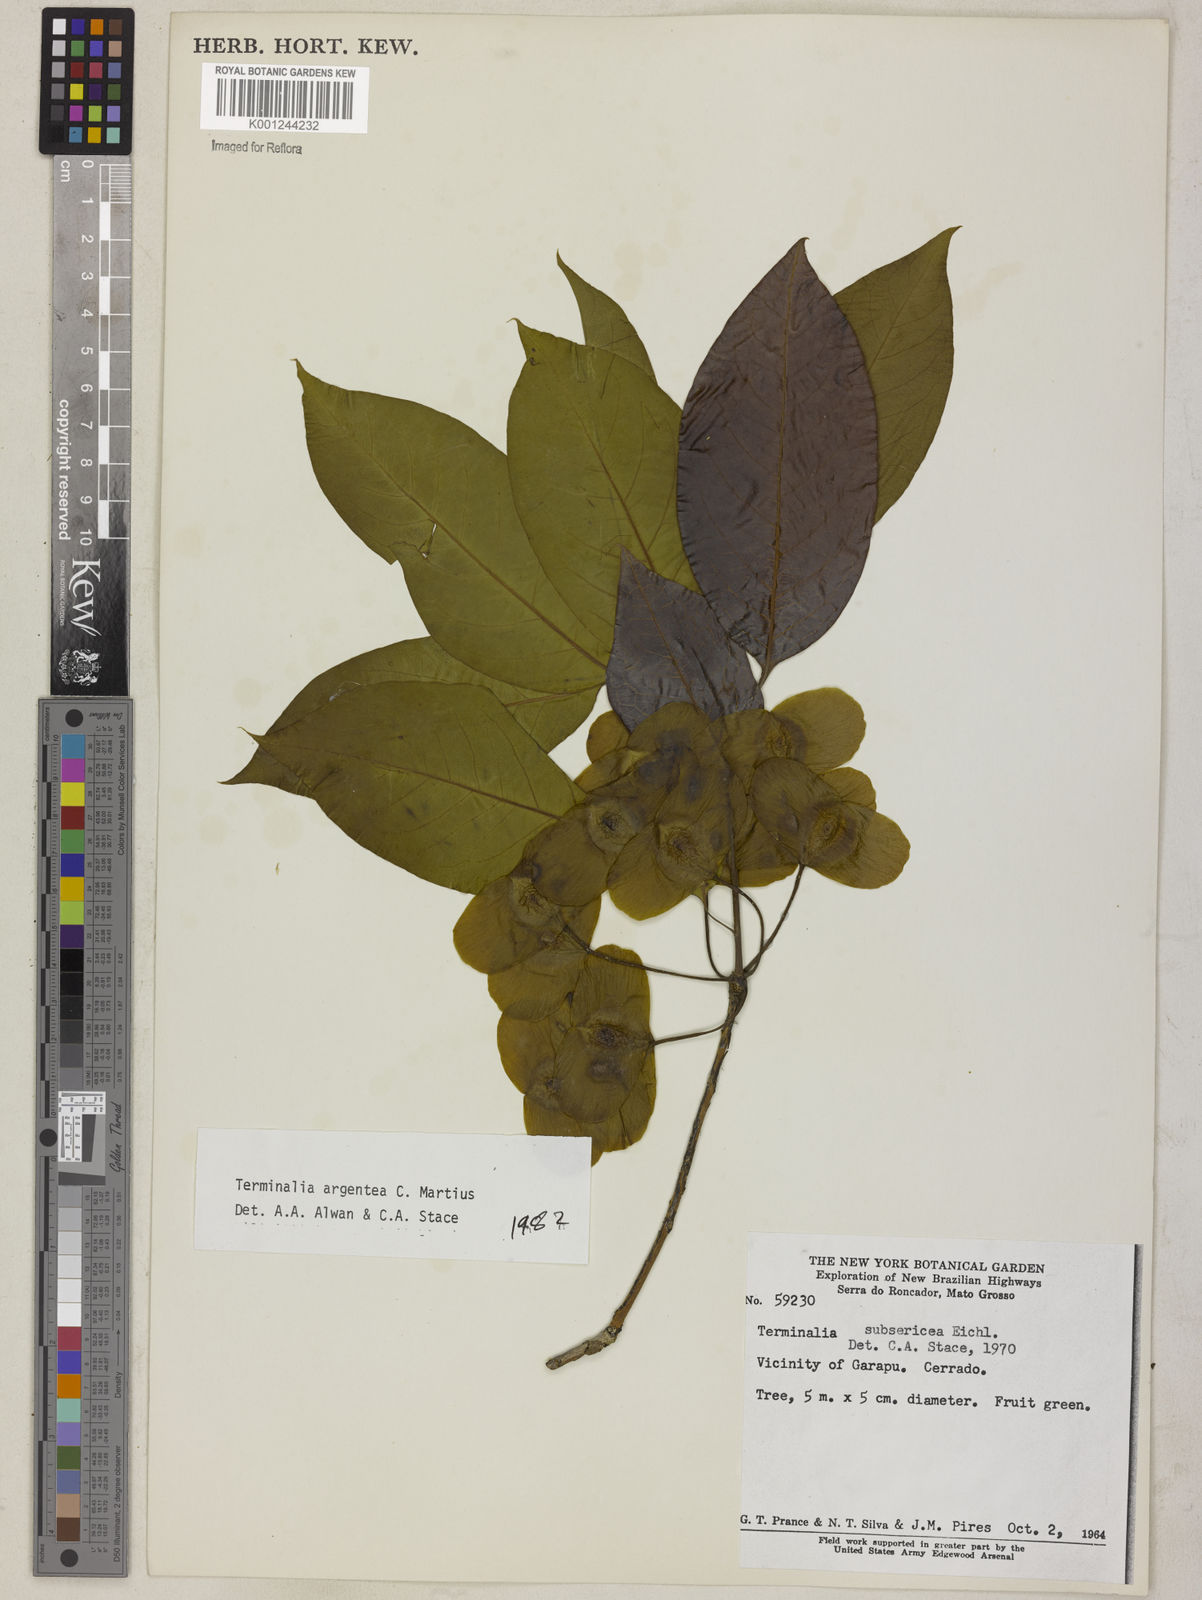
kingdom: Plantae
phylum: Tracheophyta
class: Magnoliopsida
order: Myrtales
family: Combretaceae
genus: Terminalia
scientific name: Terminalia argentea
